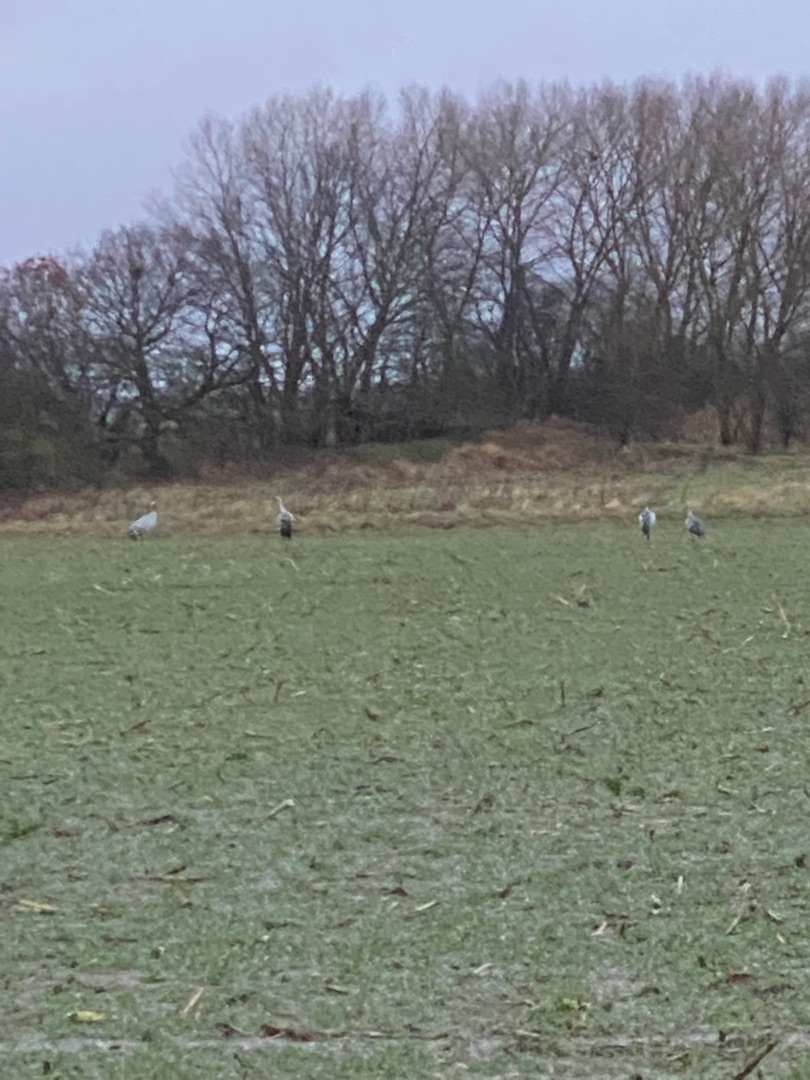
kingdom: Animalia
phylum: Chordata
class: Aves
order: Gruiformes
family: Gruidae
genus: Grus
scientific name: Grus grus
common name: Trane
